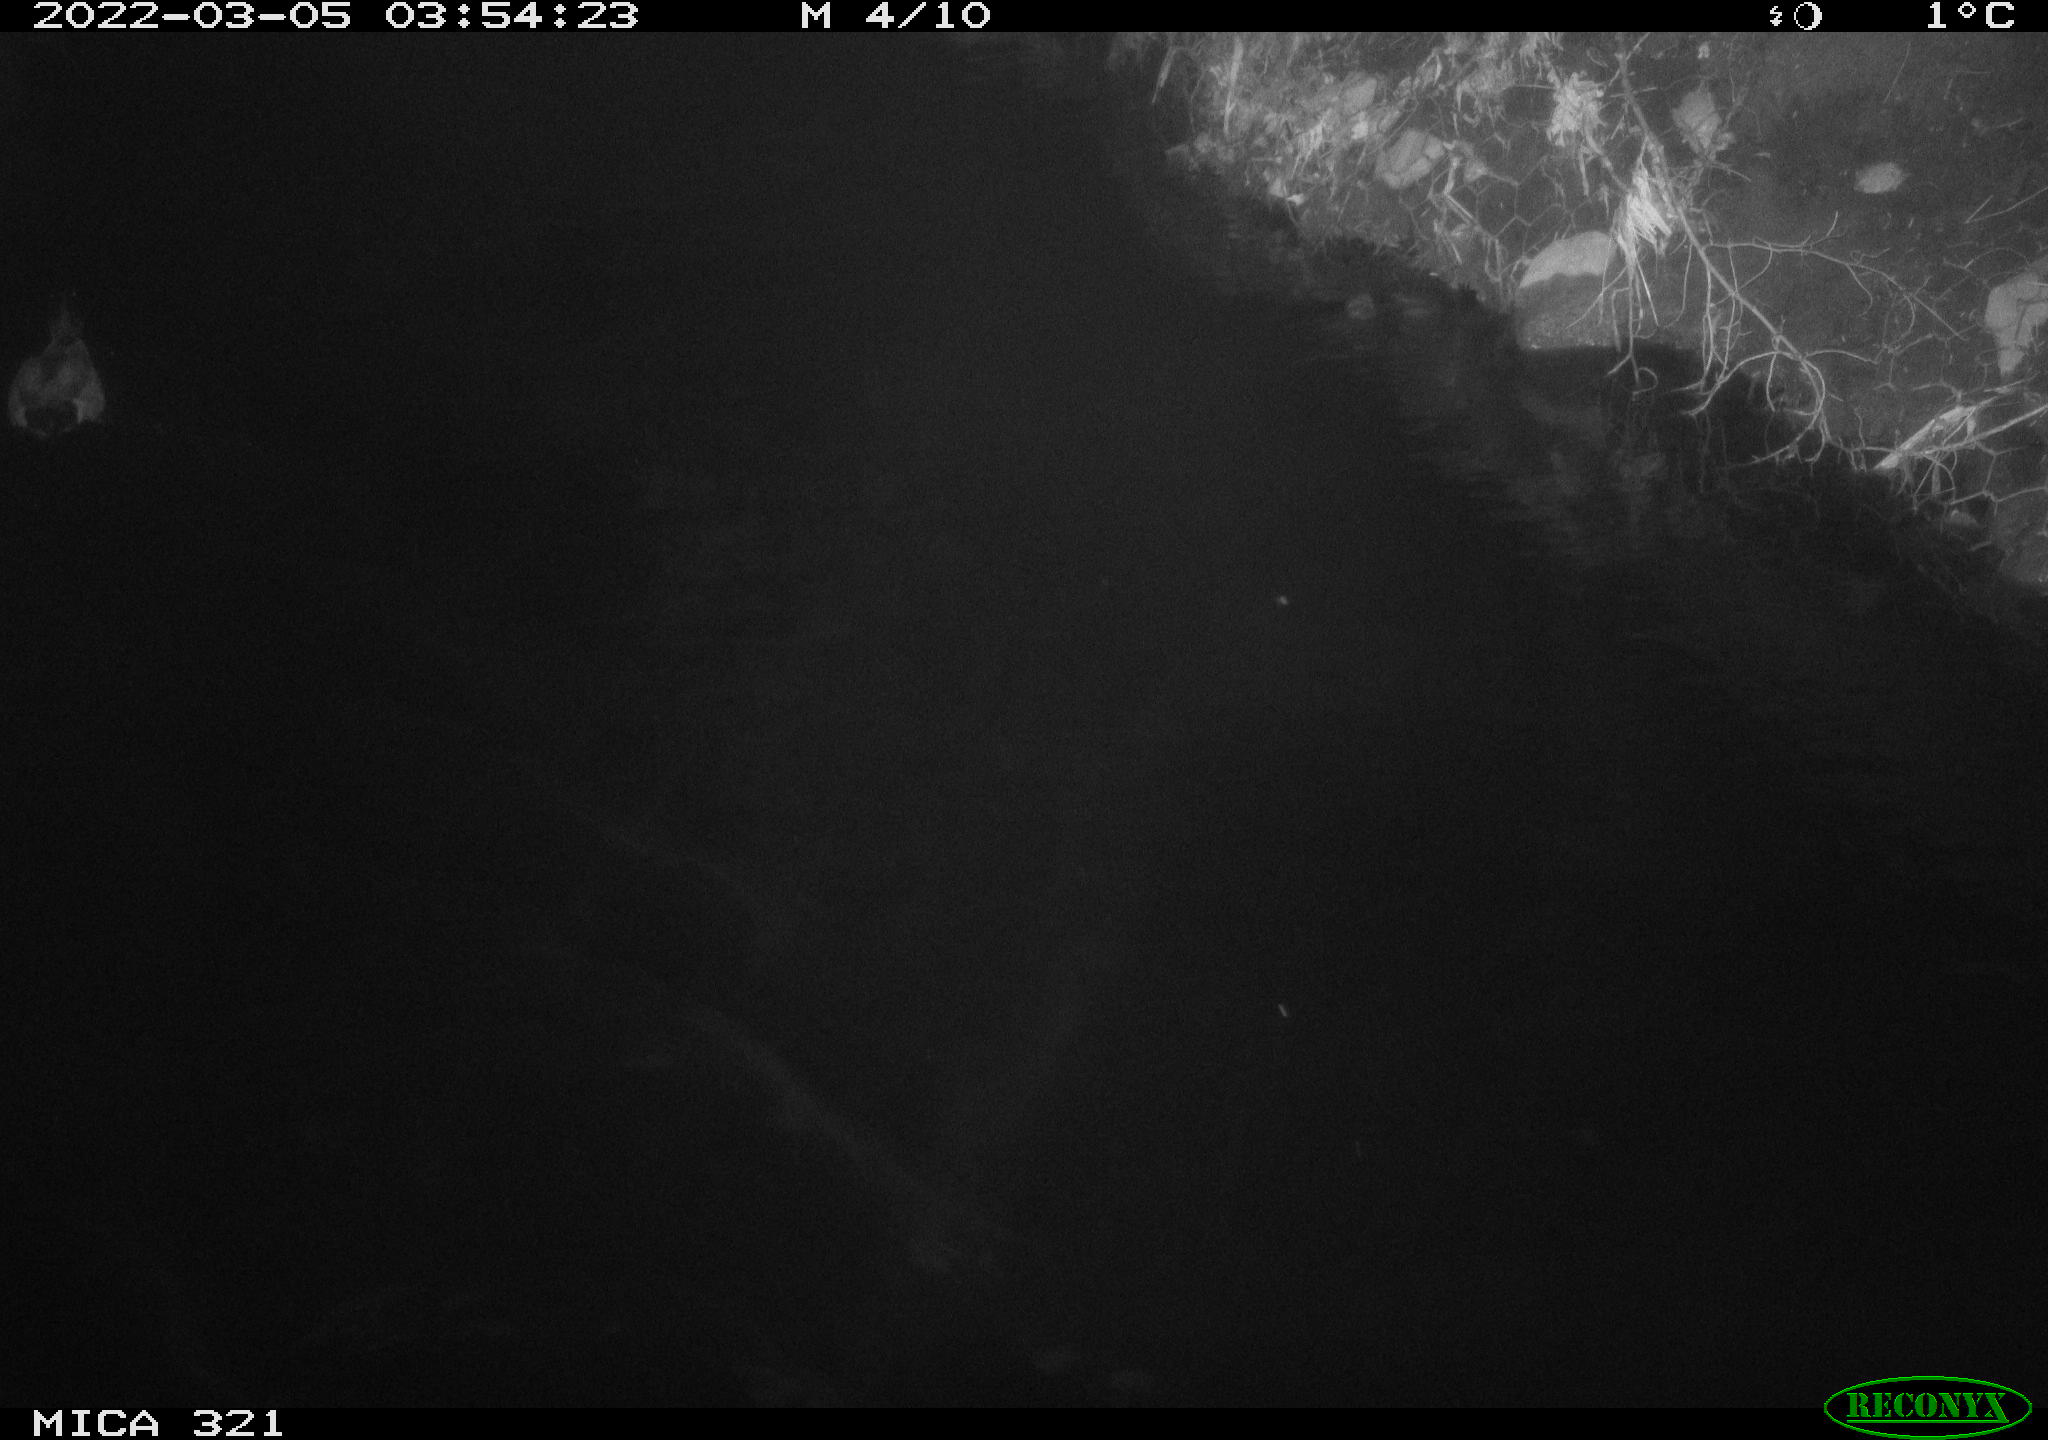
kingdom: Animalia
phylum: Chordata
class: Aves
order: Anseriformes
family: Anatidae
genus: Anas
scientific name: Anas platyrhynchos
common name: Mallard
